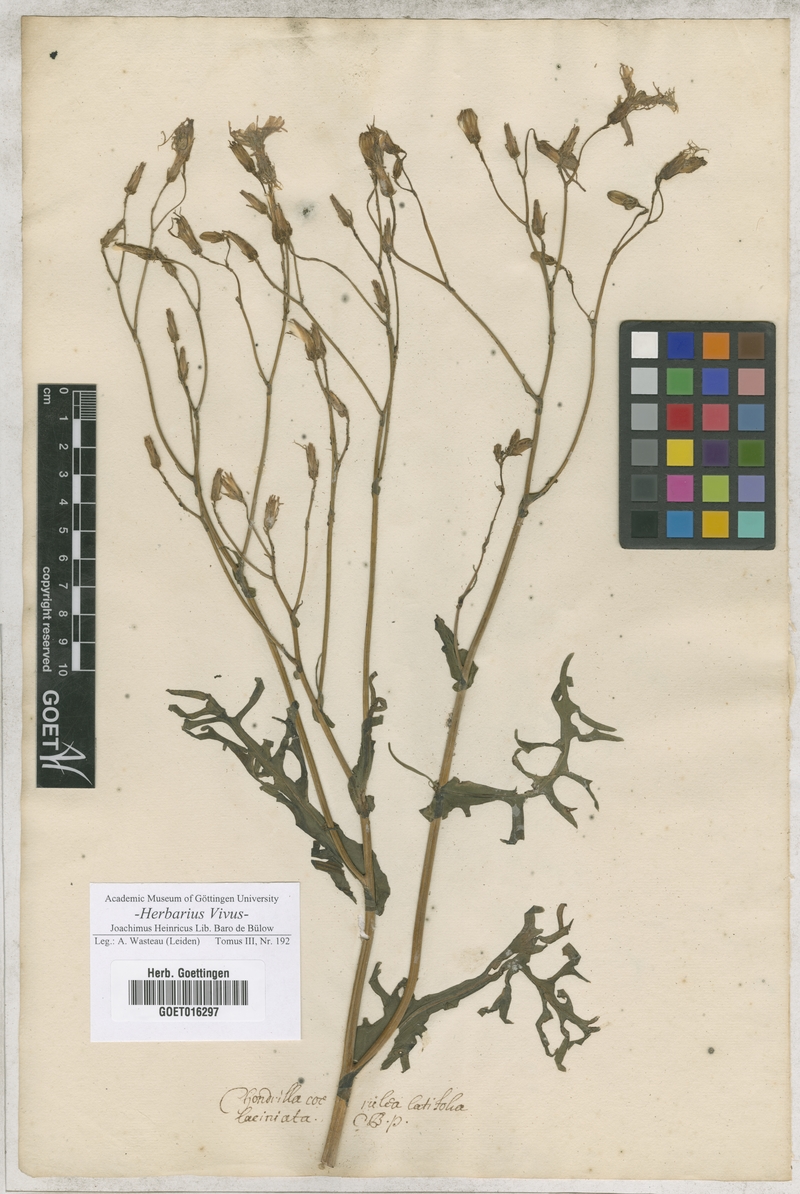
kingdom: Plantae
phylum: Tracheophyta
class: Magnoliopsida
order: Asterales
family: Asteraceae
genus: Chondrilla
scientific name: Chondrilla
